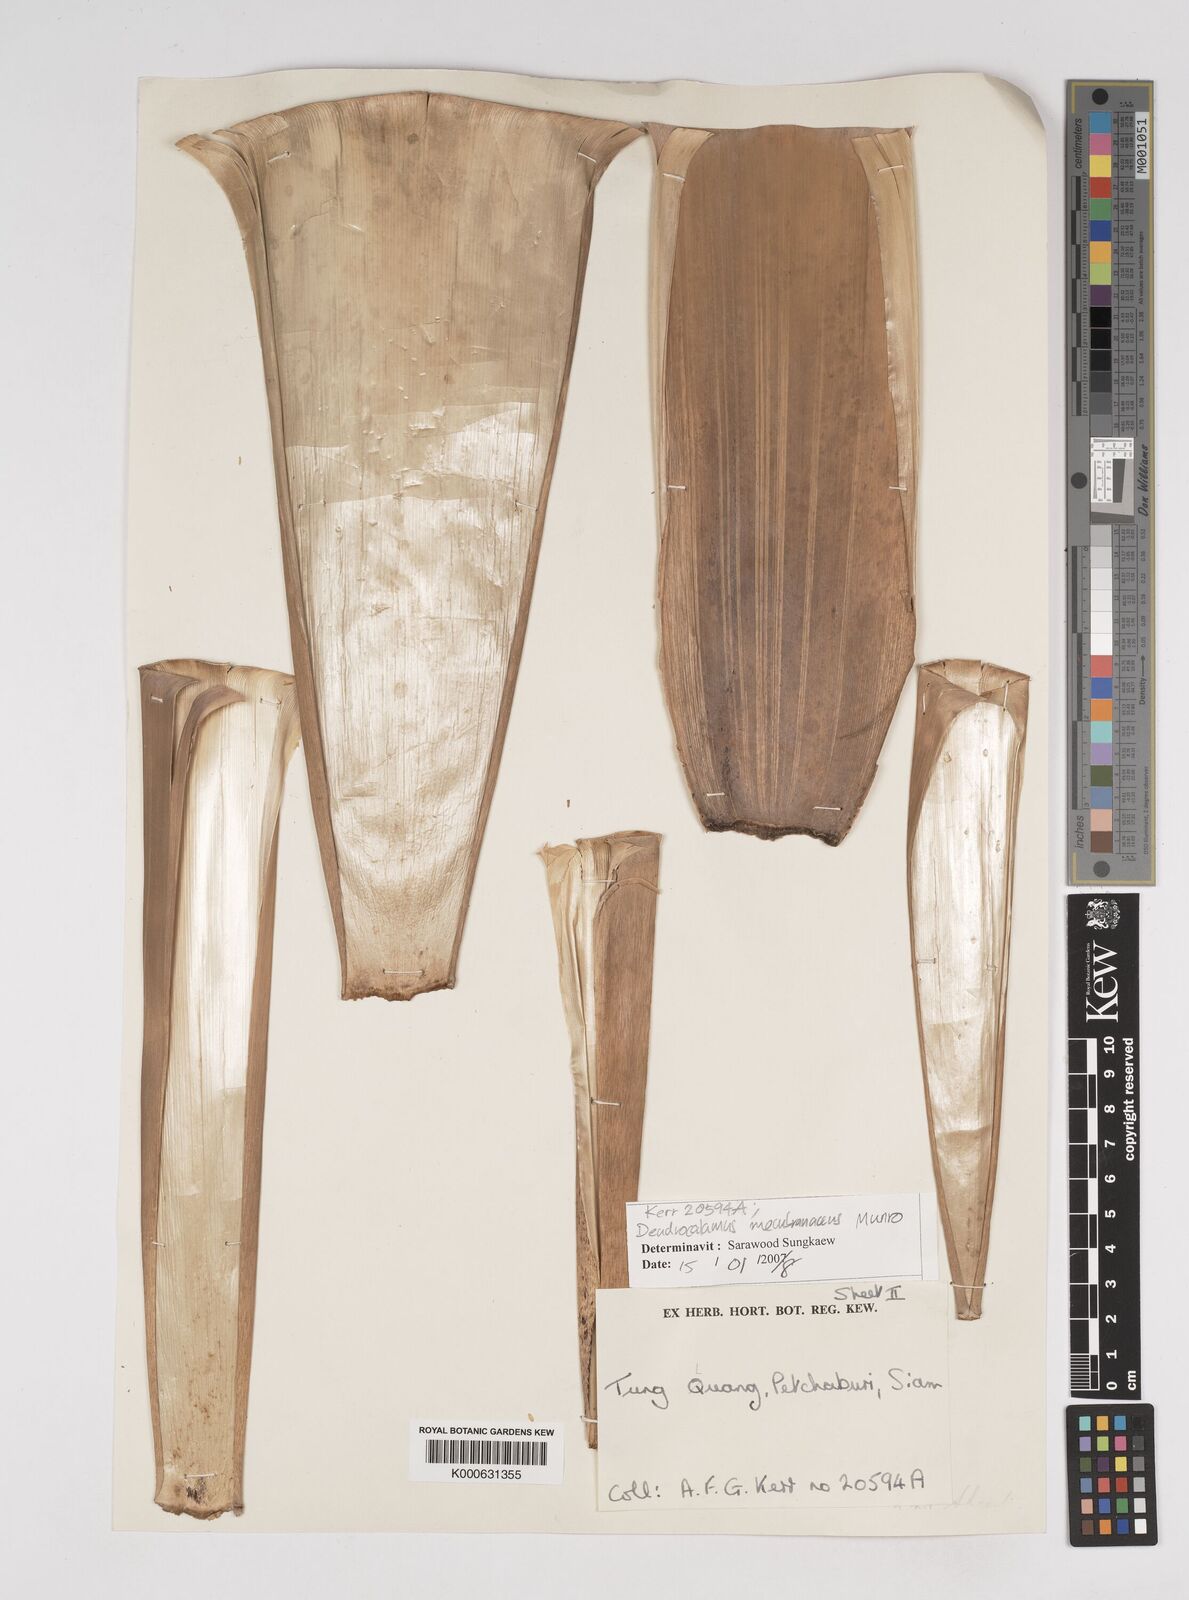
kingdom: Plantae
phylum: Tracheophyta
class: Liliopsida
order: Poales
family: Poaceae
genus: Dendrocalamus
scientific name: Dendrocalamus membranaceus
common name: White bamboo
